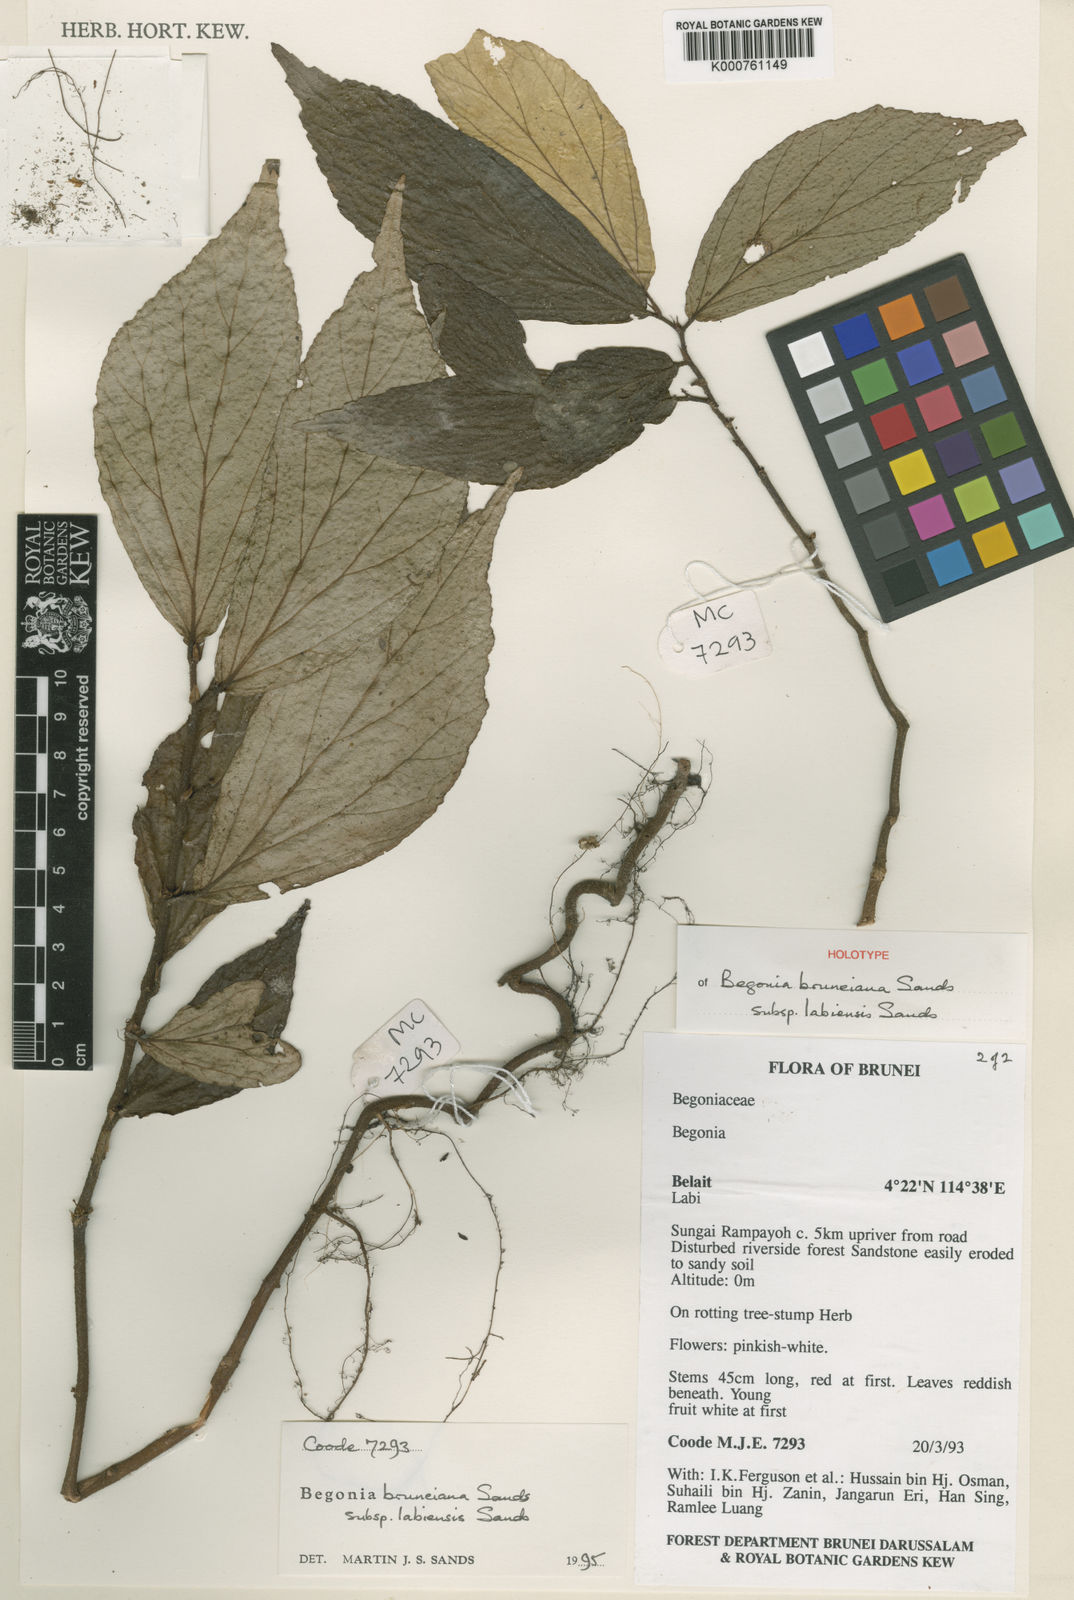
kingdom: Plantae
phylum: Tracheophyta
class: Magnoliopsida
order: Cucurbitales
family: Begoniaceae
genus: Begonia
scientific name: Begonia labiensis
